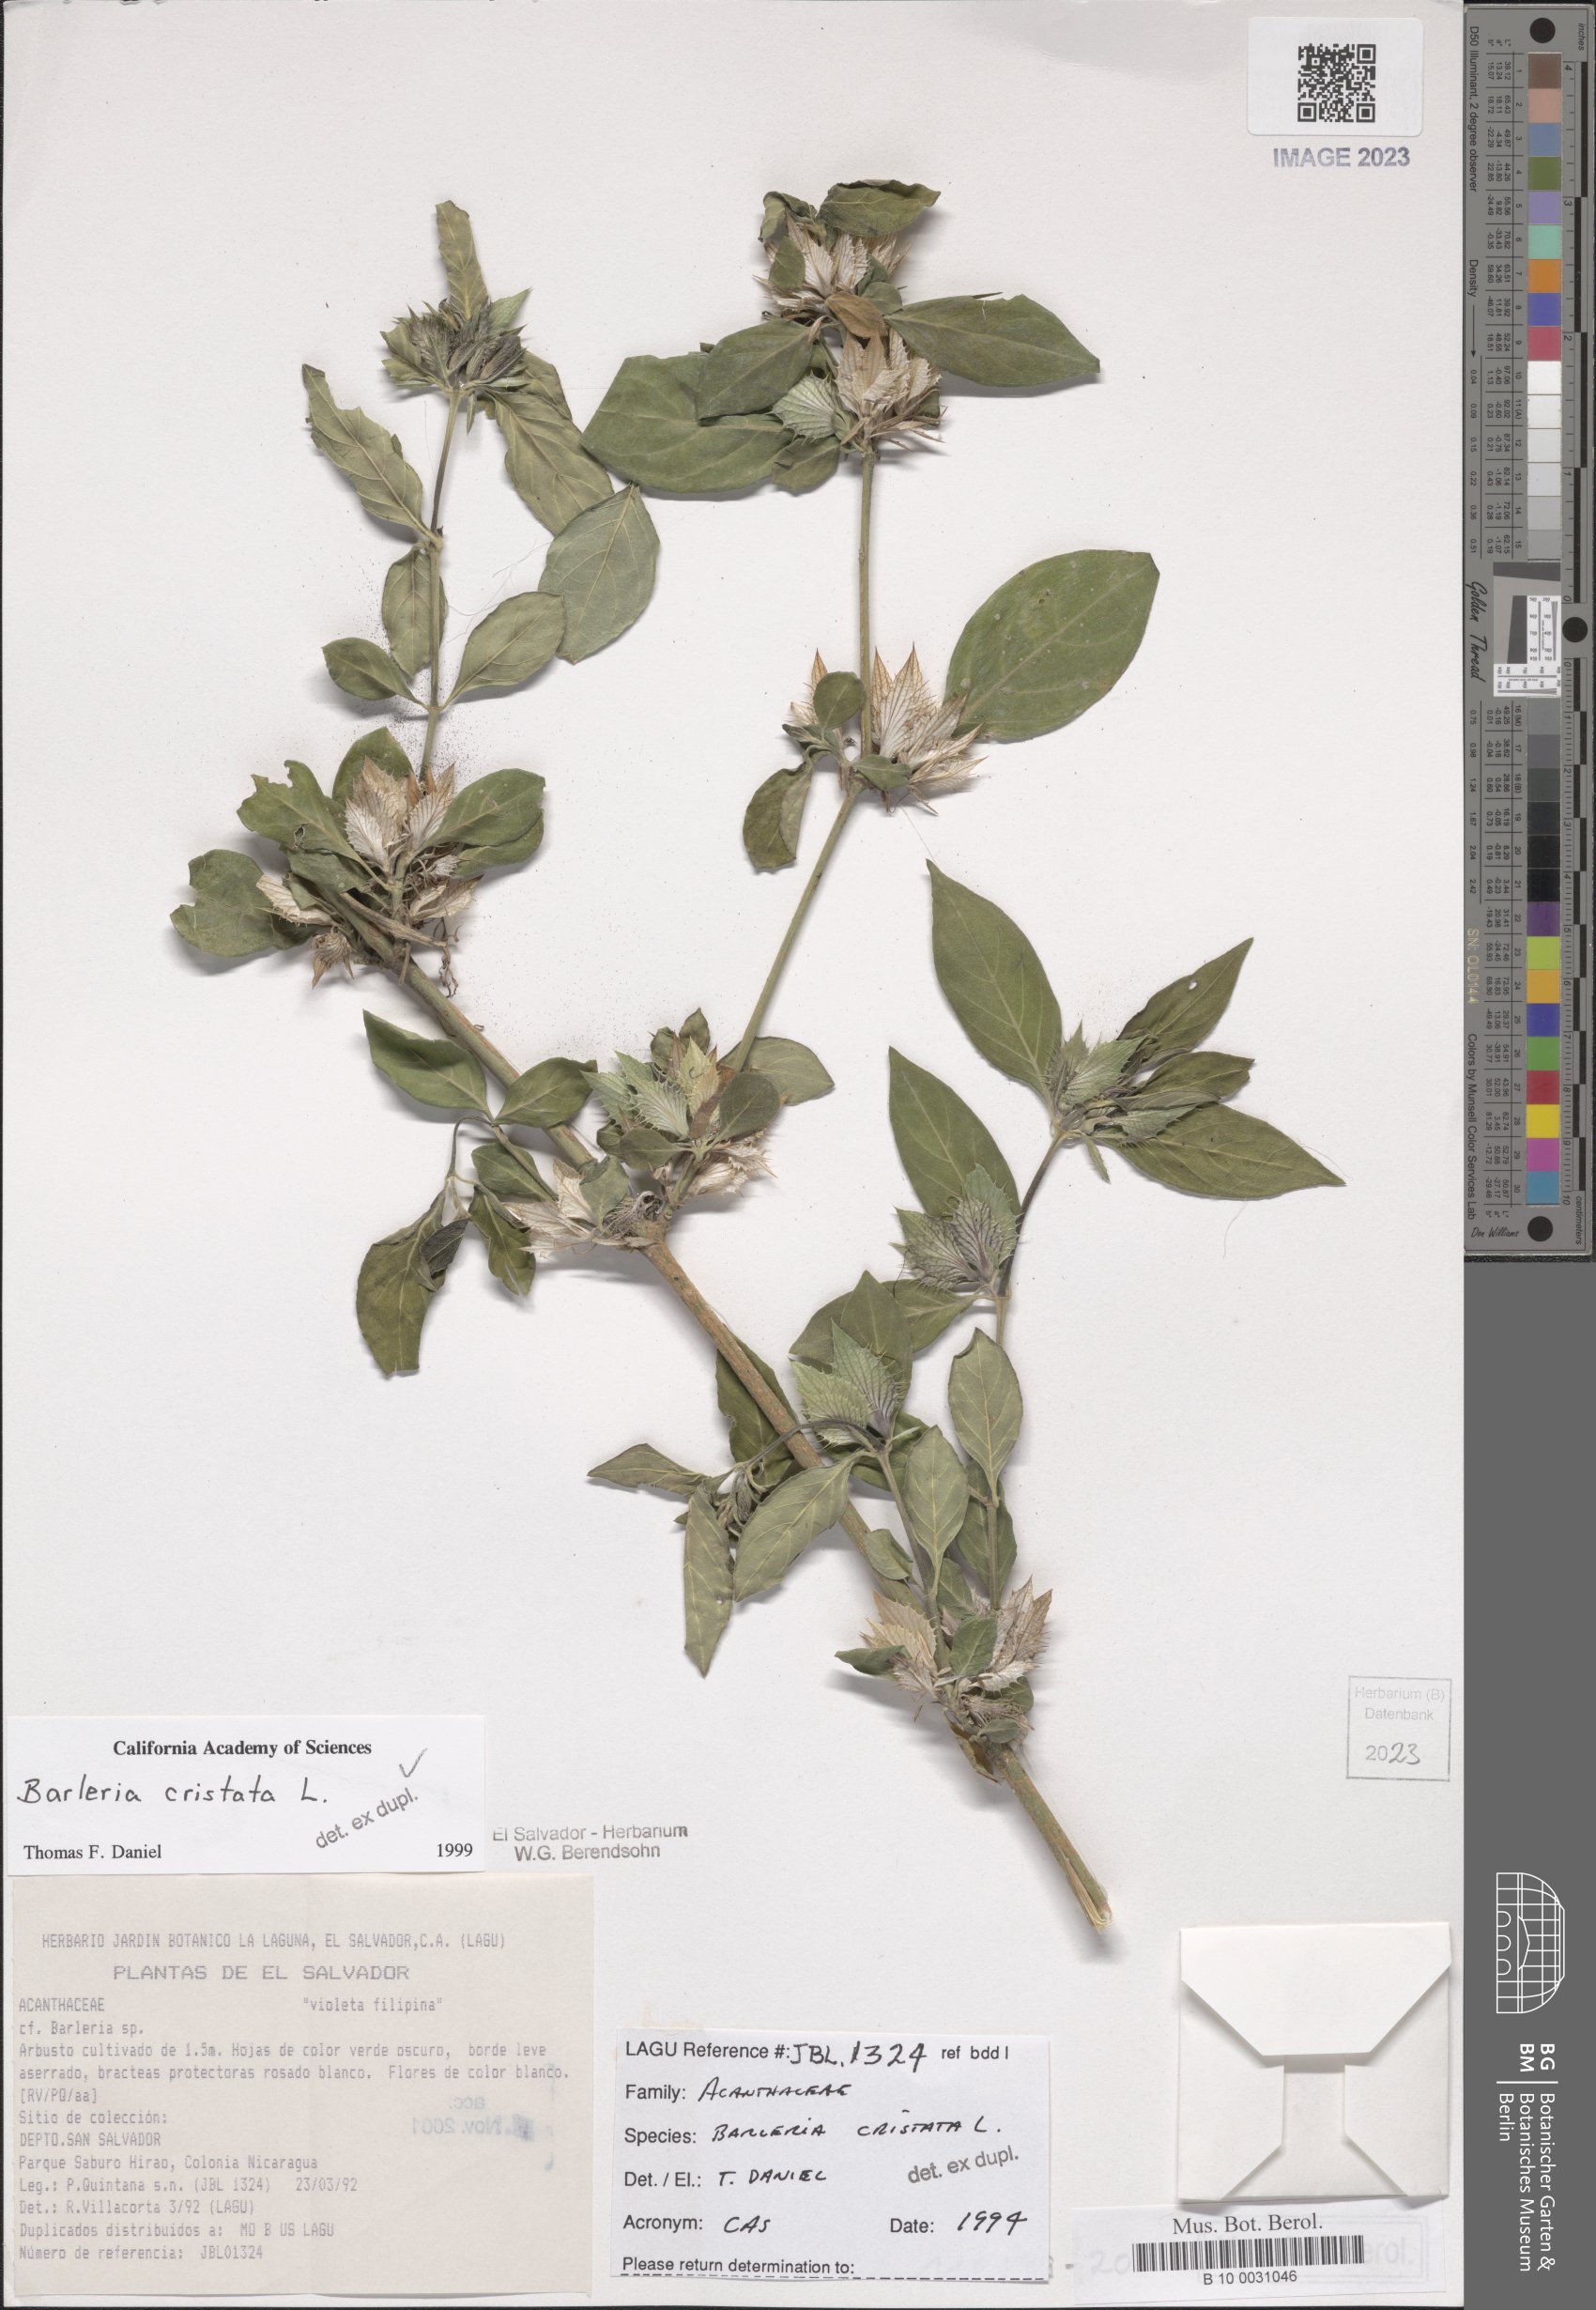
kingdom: Plantae
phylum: Tracheophyta
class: Magnoliopsida
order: Lamiales
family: Acanthaceae
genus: Barleria
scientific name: Barleria cristata
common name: Crested philippine violet
